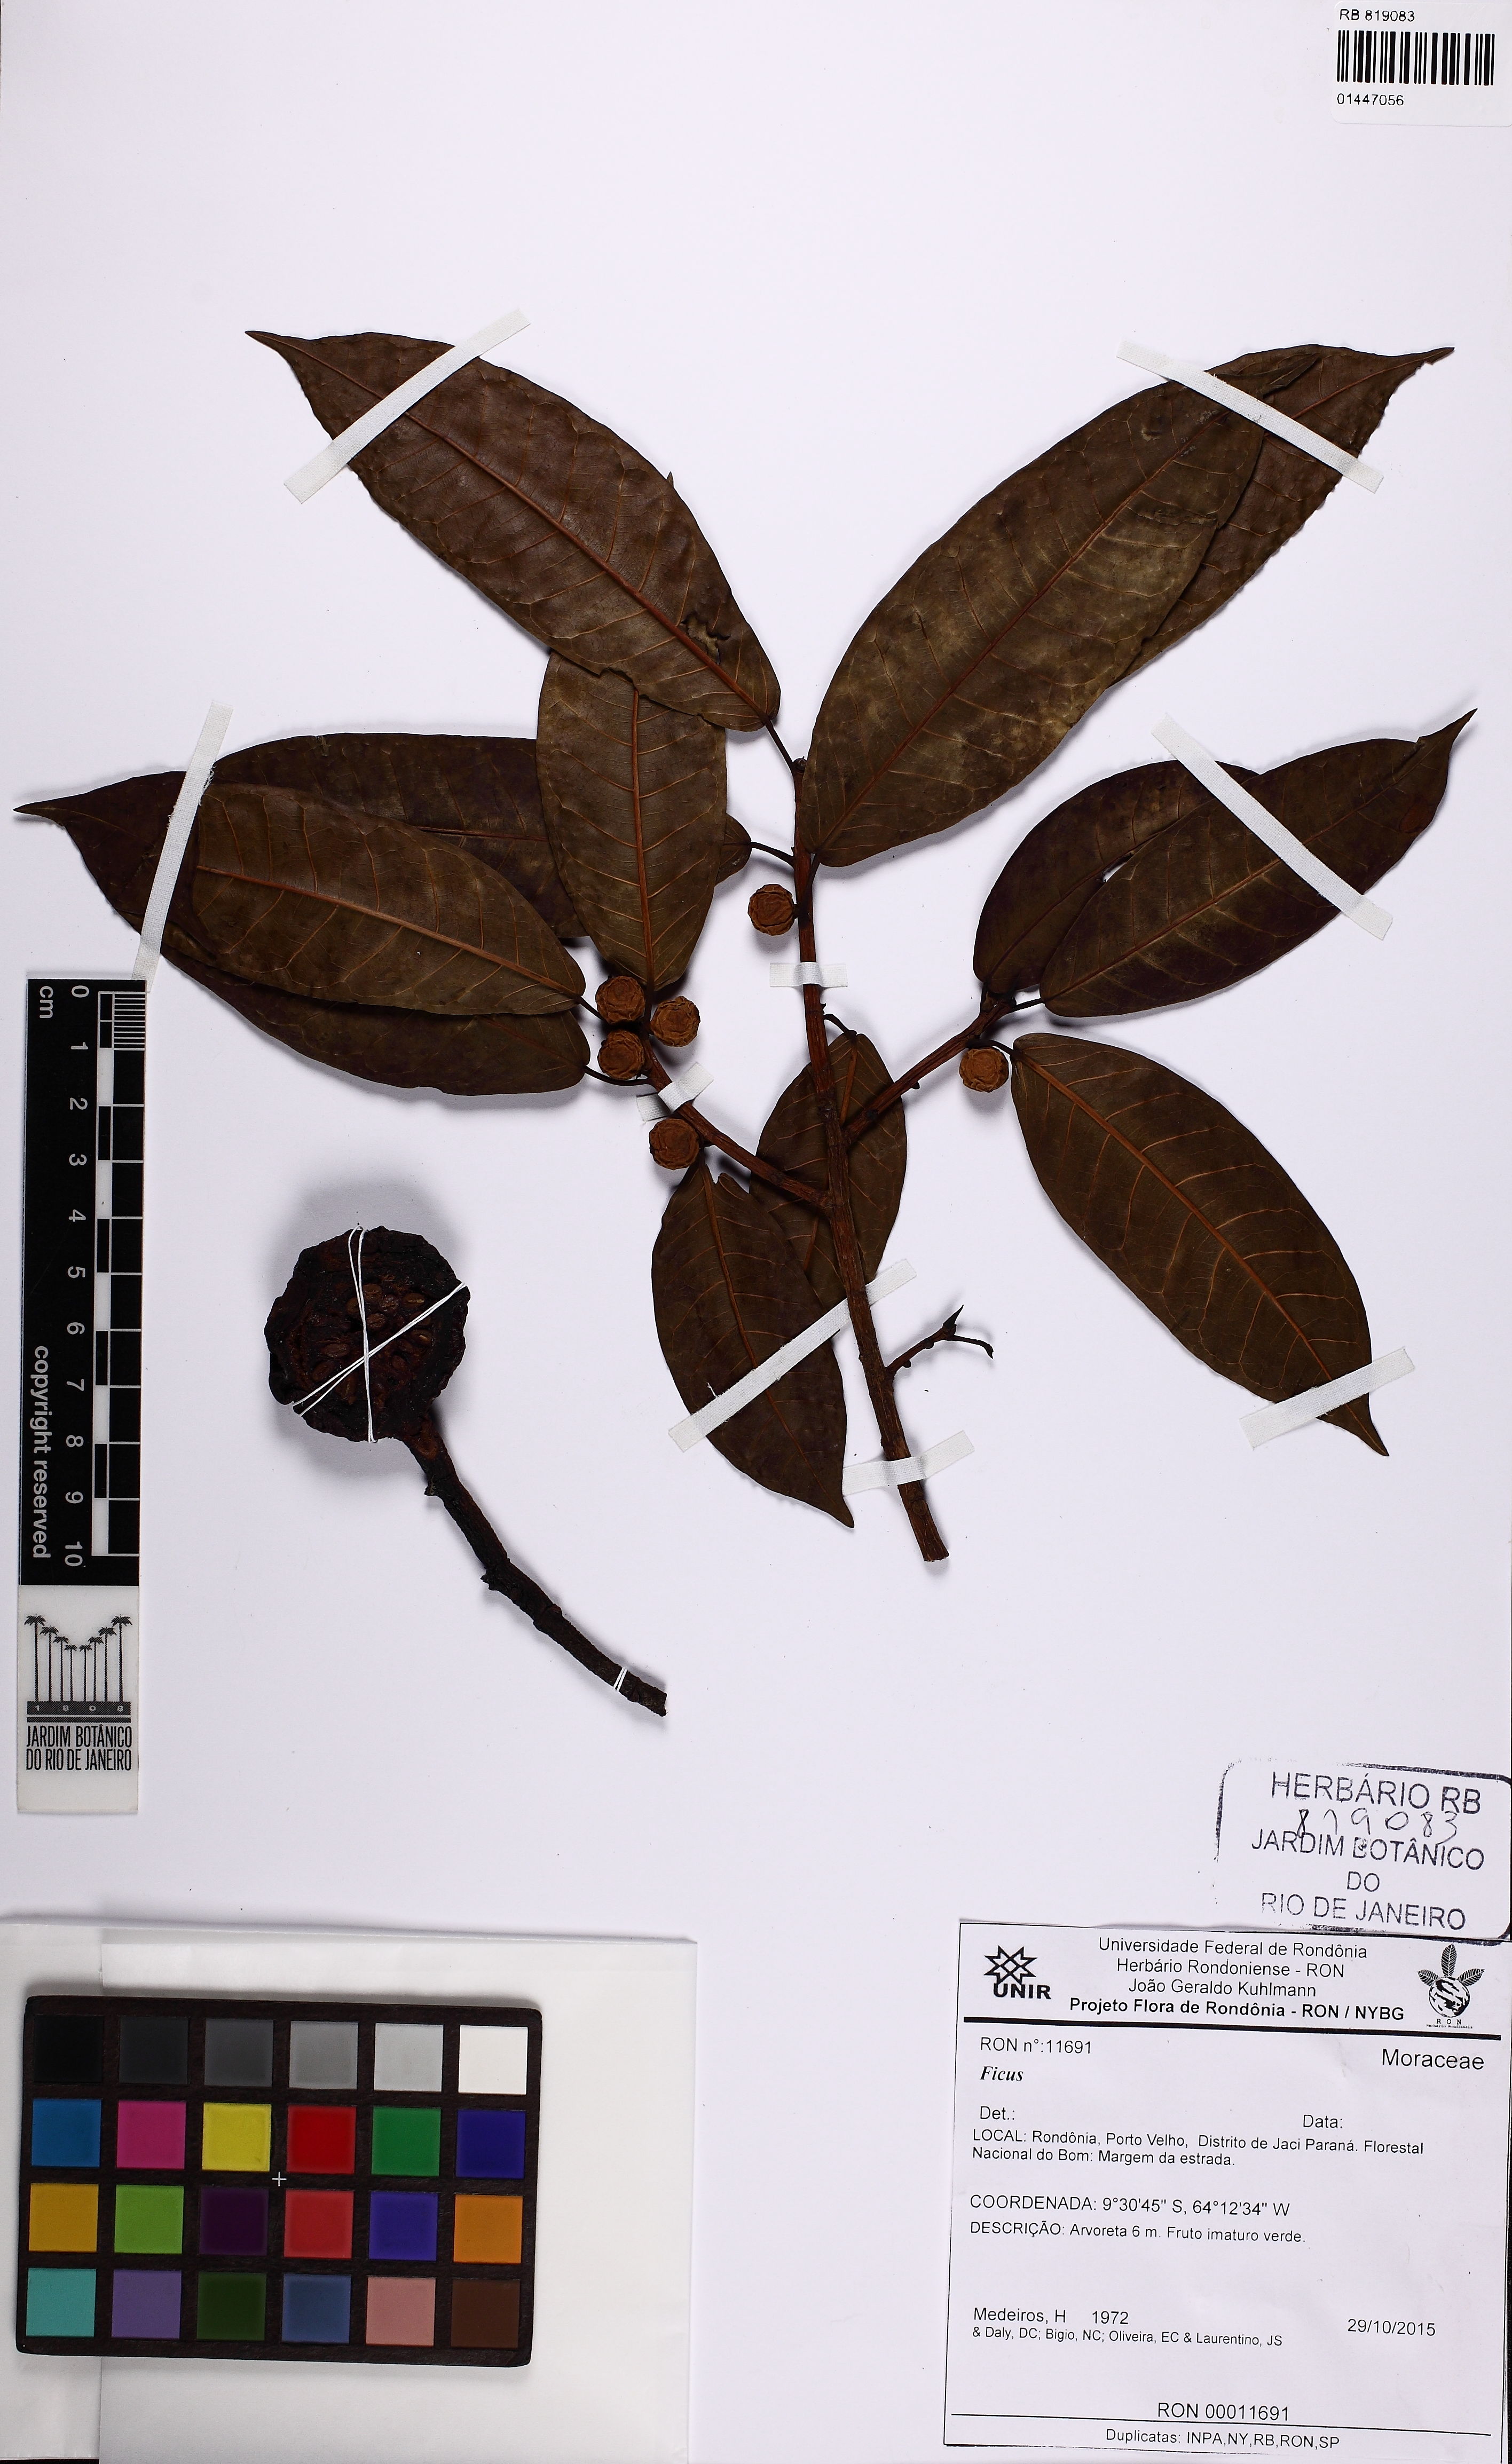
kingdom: Plantae
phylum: Tracheophyta
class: Magnoliopsida
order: Rosales
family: Moraceae
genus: Ficus
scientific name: Ficus donnell-smithii
